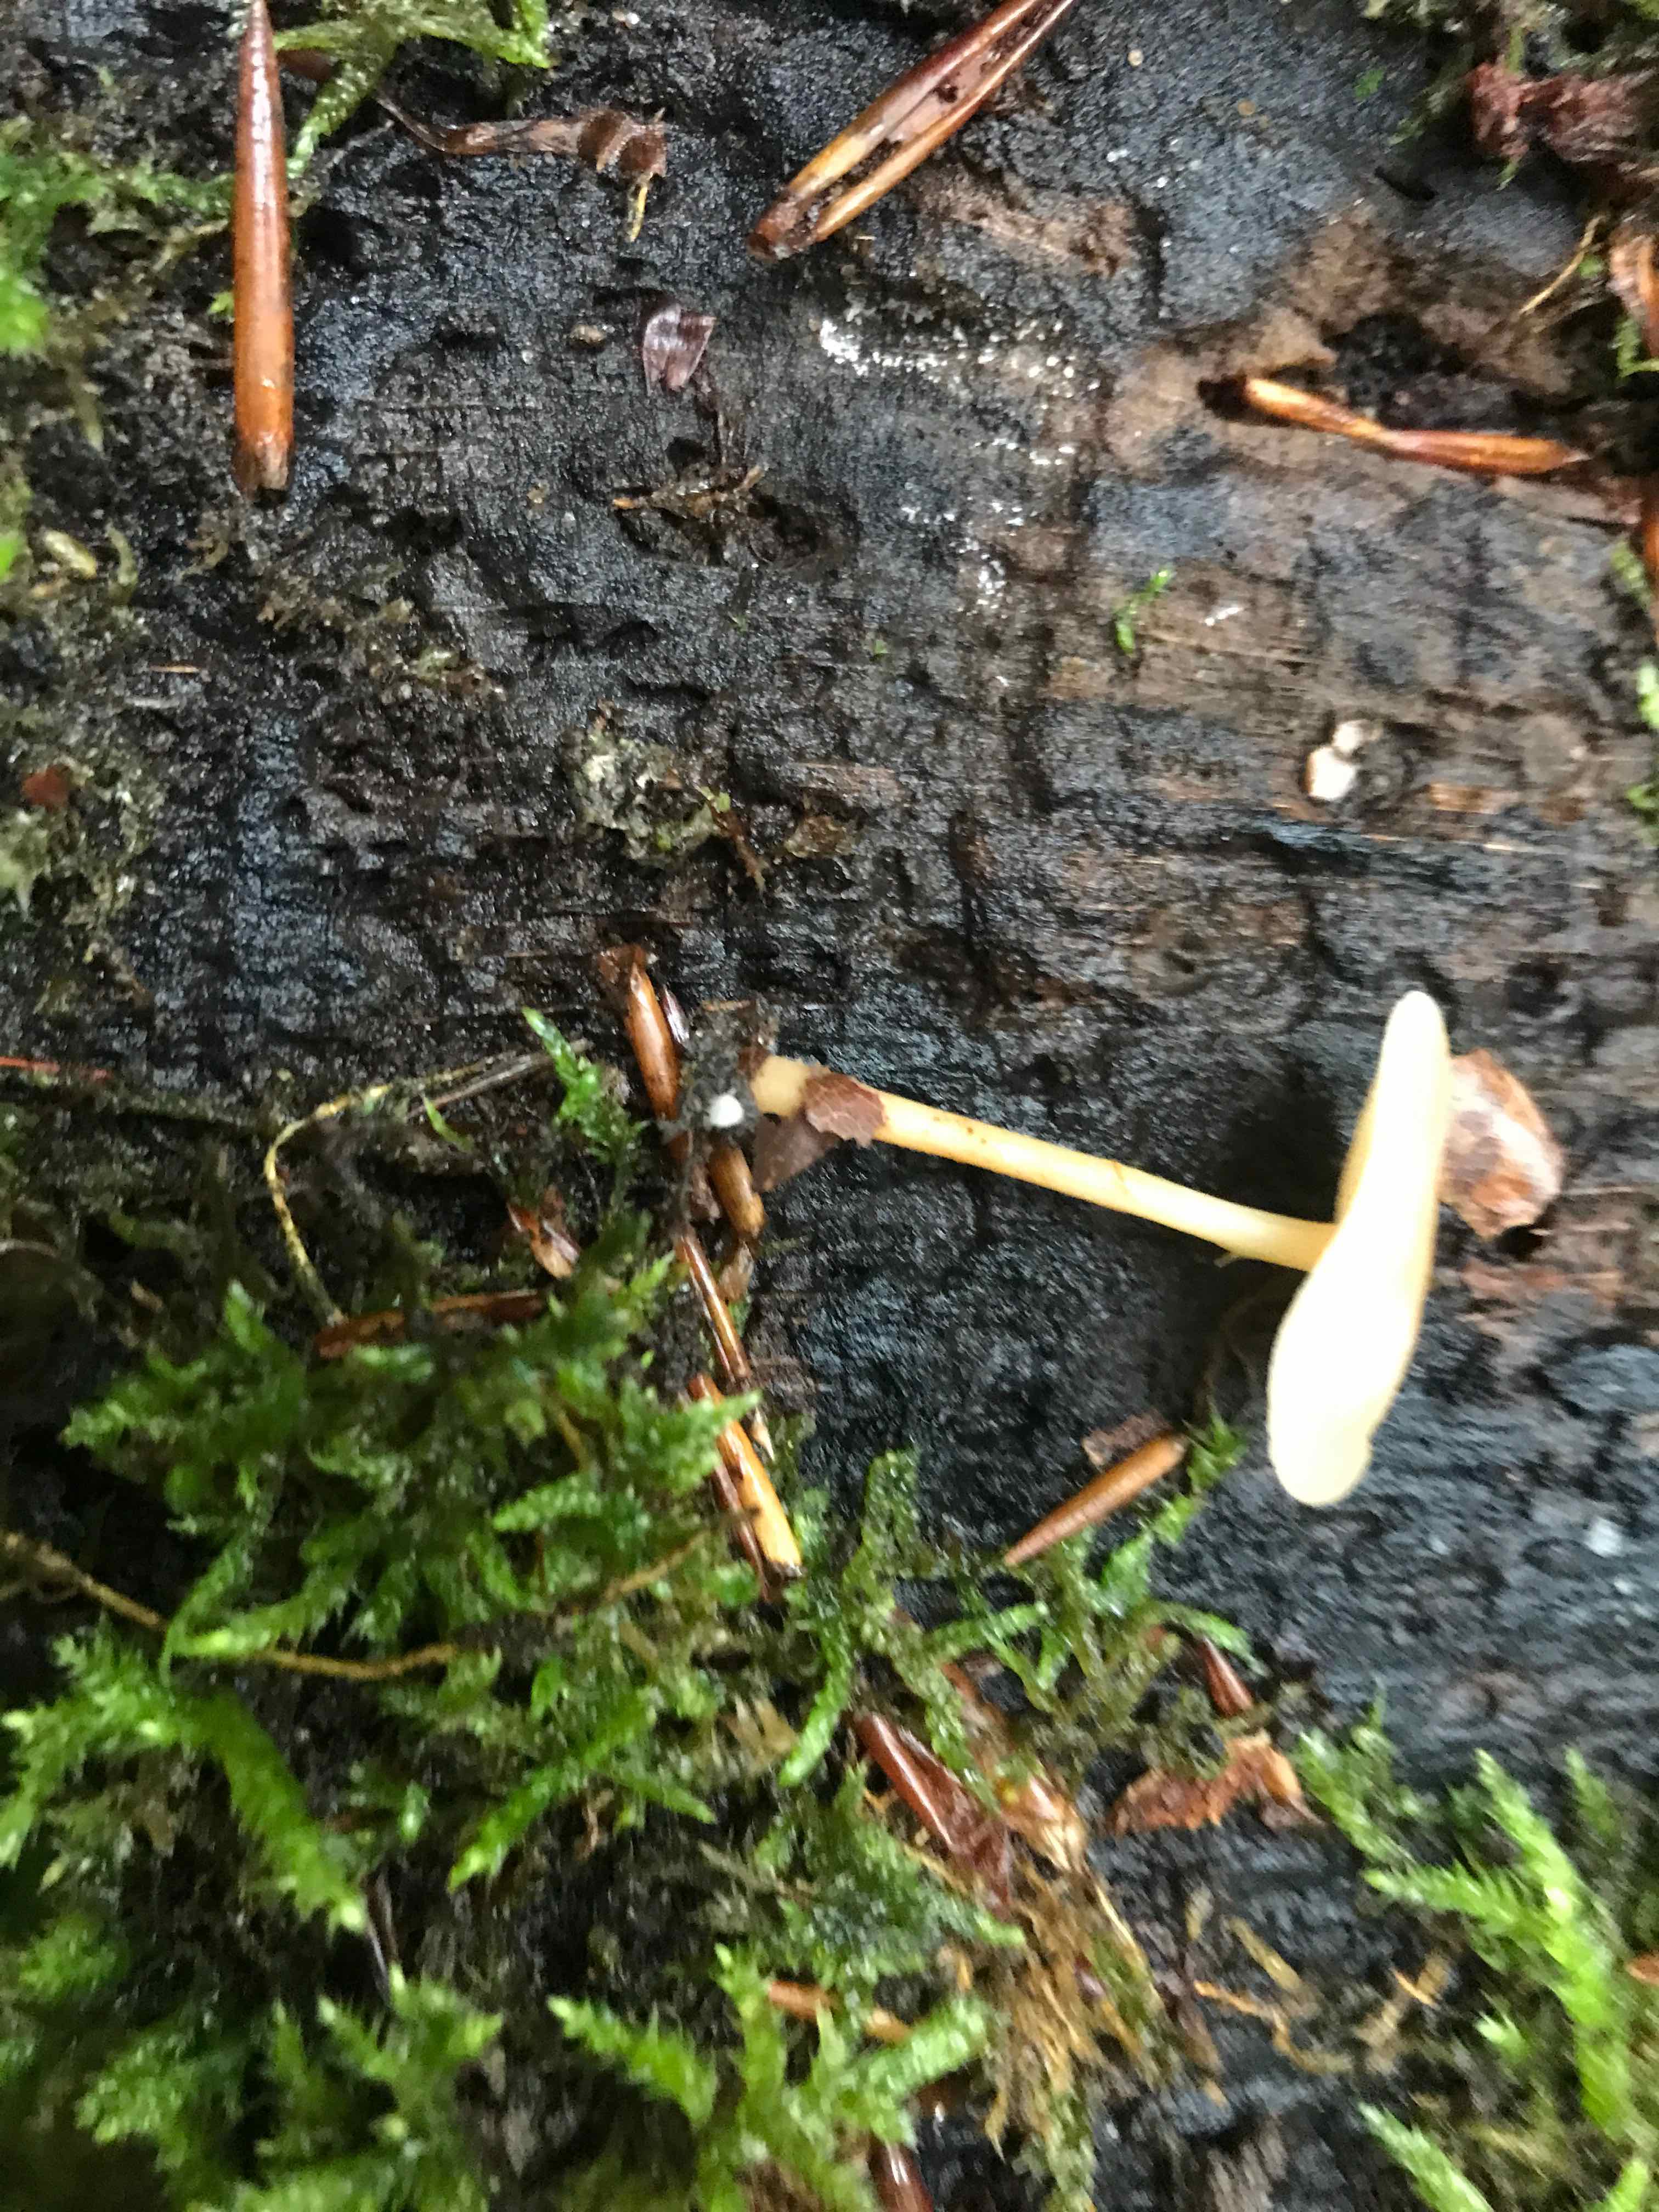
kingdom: Fungi
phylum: Basidiomycota
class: Agaricomycetes
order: Agaricales
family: Omphalotaceae
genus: Gymnopus
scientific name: Gymnopus dryophilus
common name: løv-fladhat
